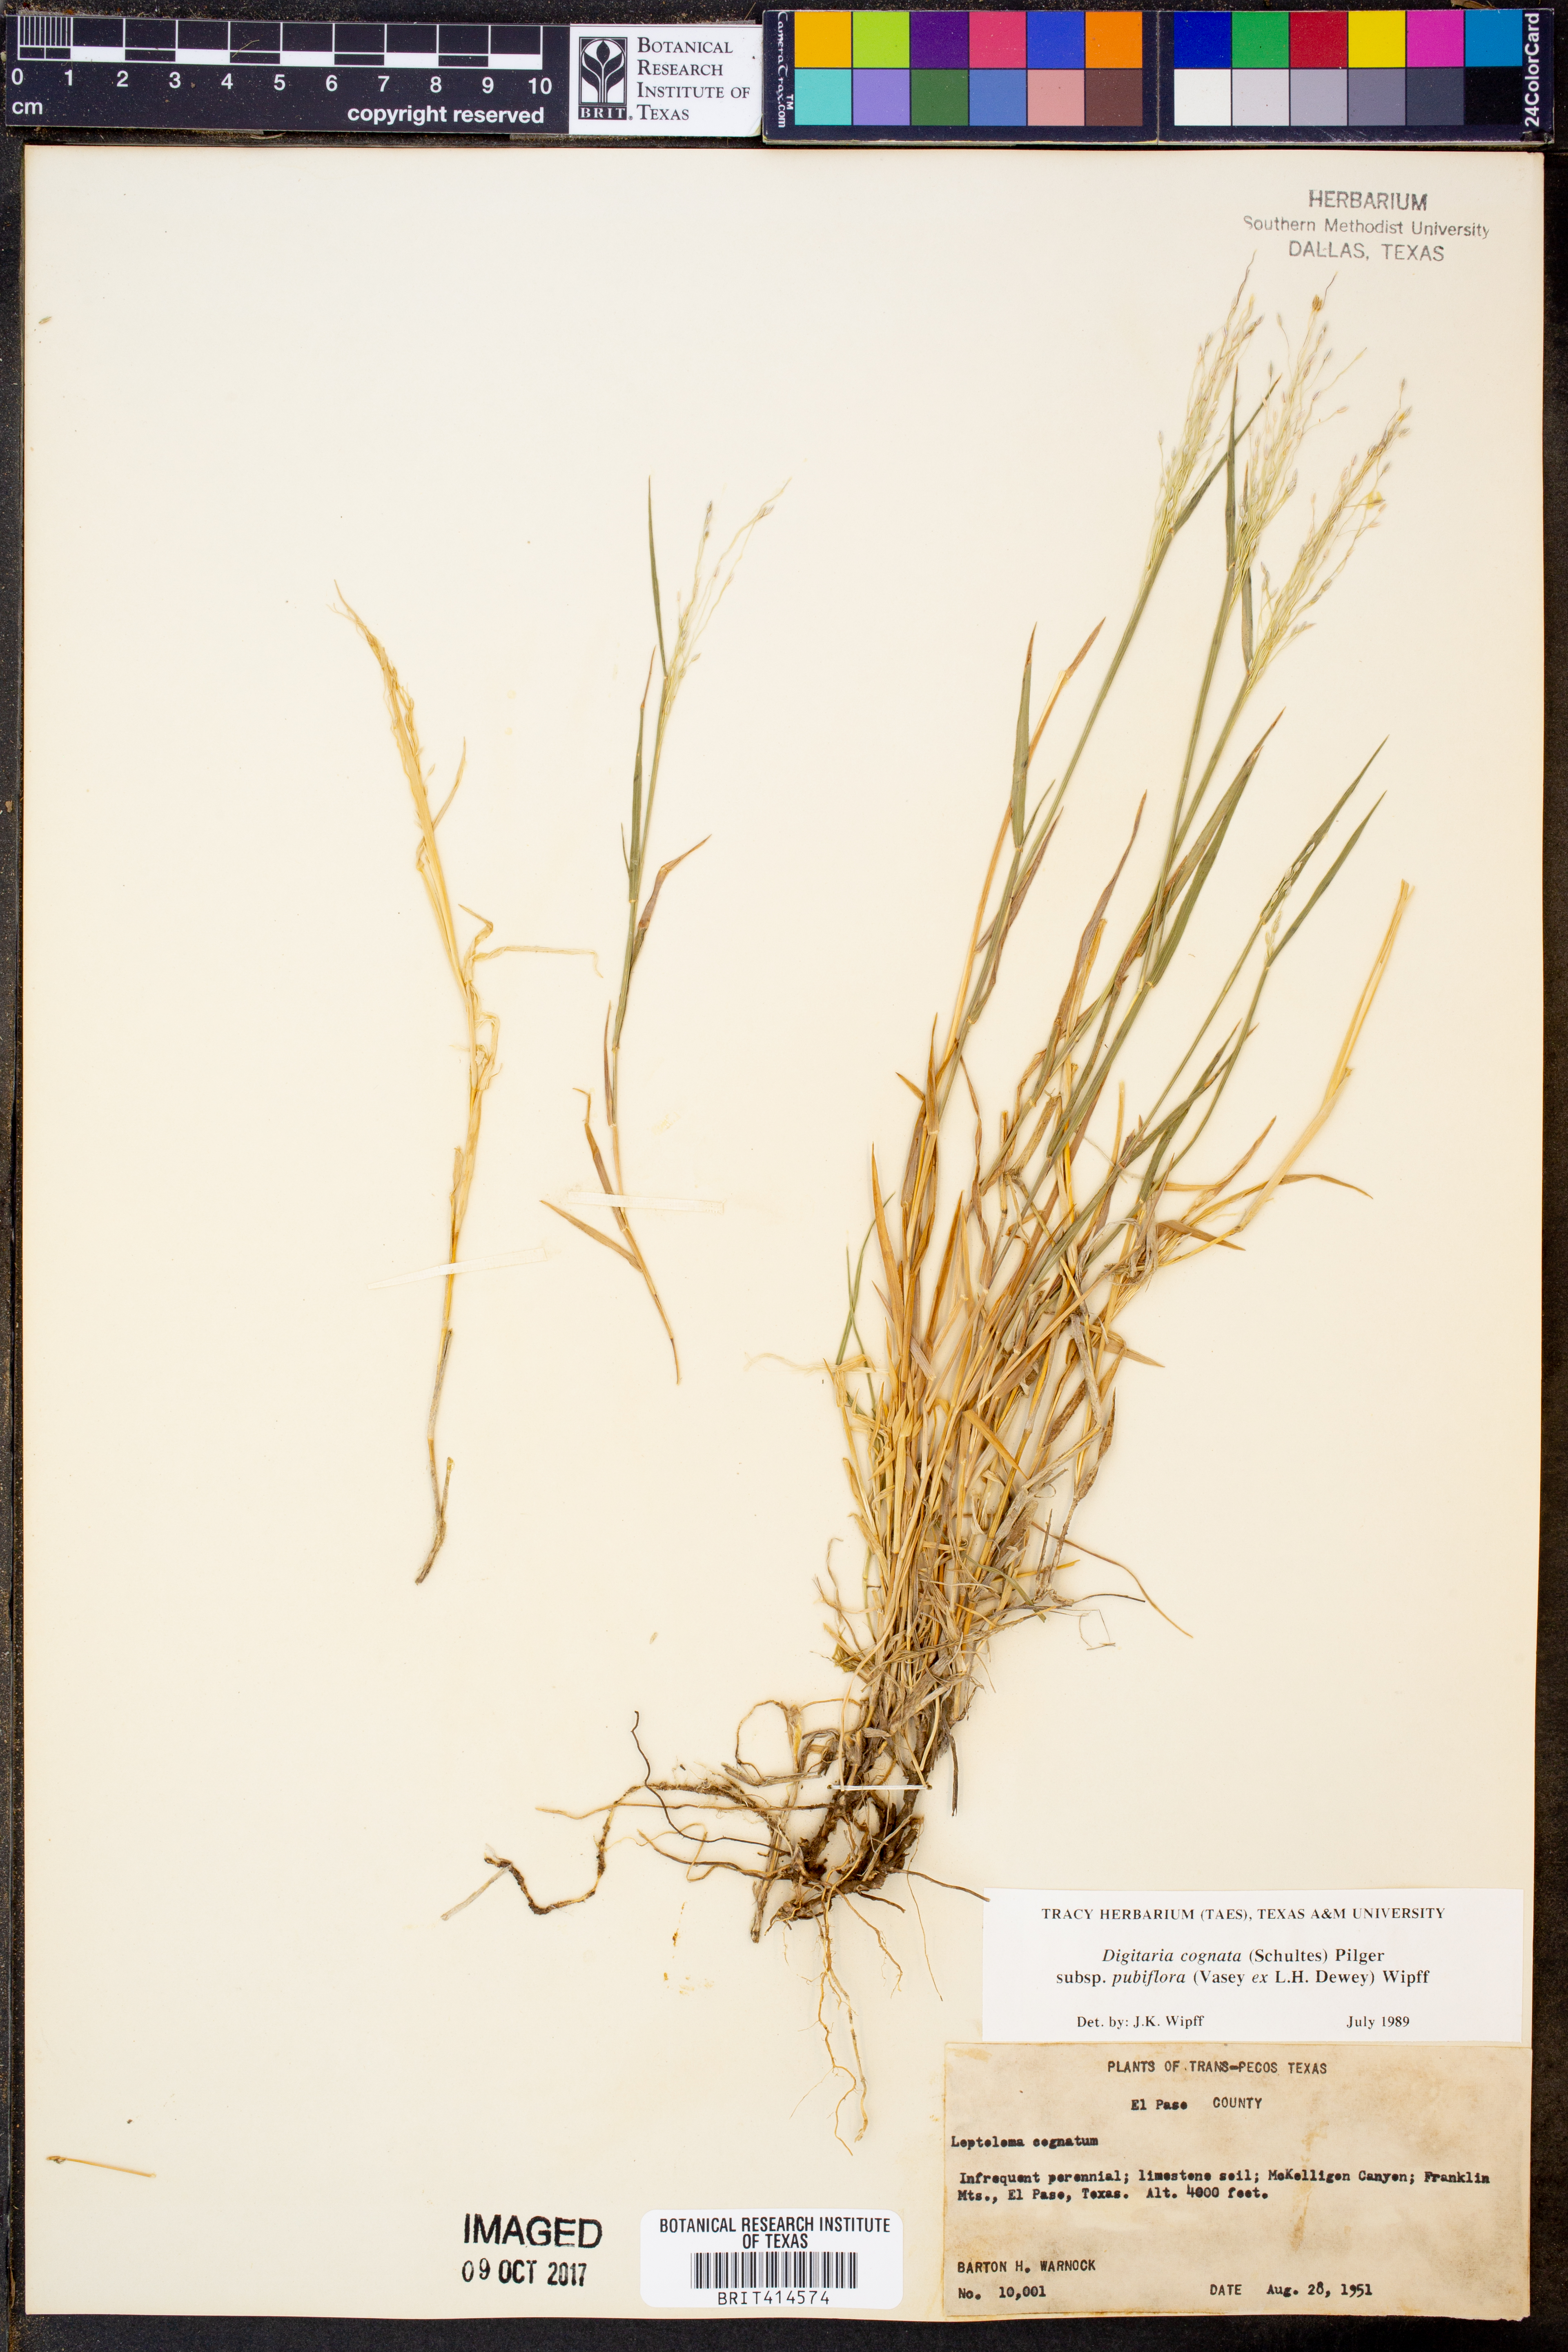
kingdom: Plantae
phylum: Tracheophyta
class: Liliopsida
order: Poales
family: Poaceae
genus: Digitaria
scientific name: Digitaria cognata
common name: Fall witchgrass
